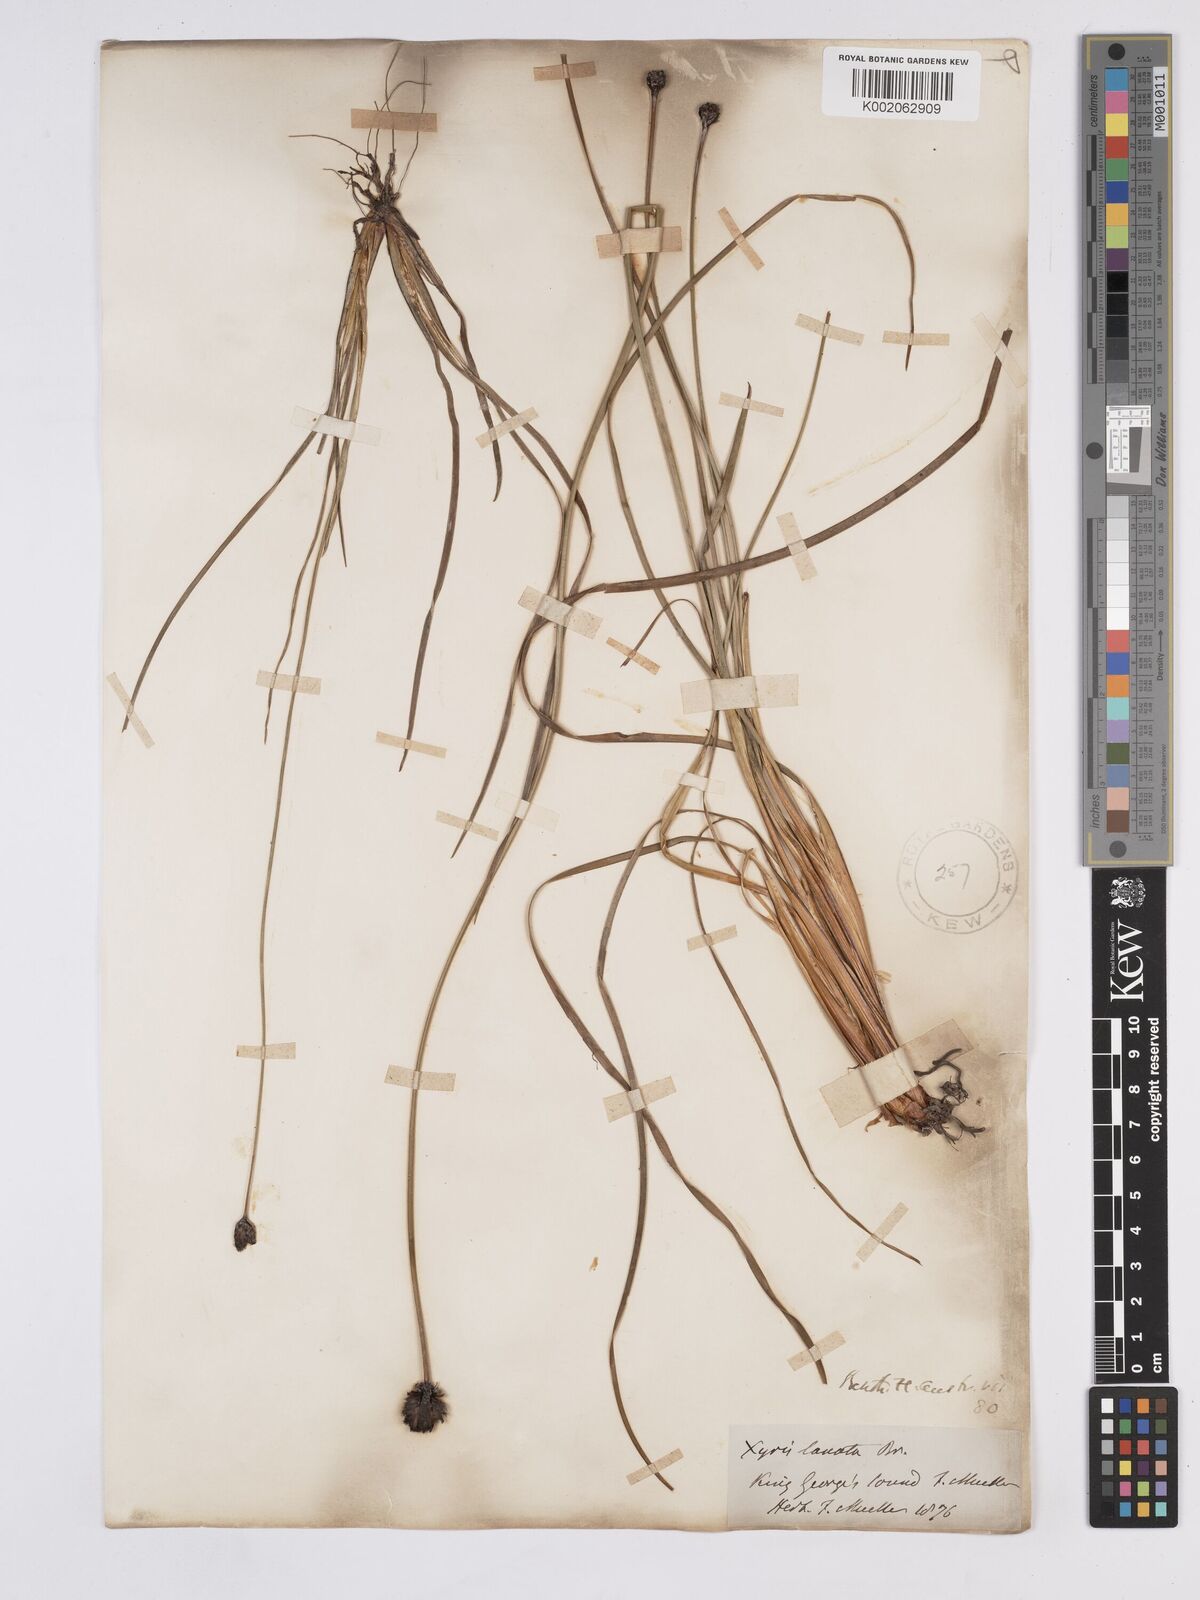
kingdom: Plantae
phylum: Tracheophyta
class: Liliopsida
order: Poales
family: Xyridaceae
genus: Xyris
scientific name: Xyris lanata
